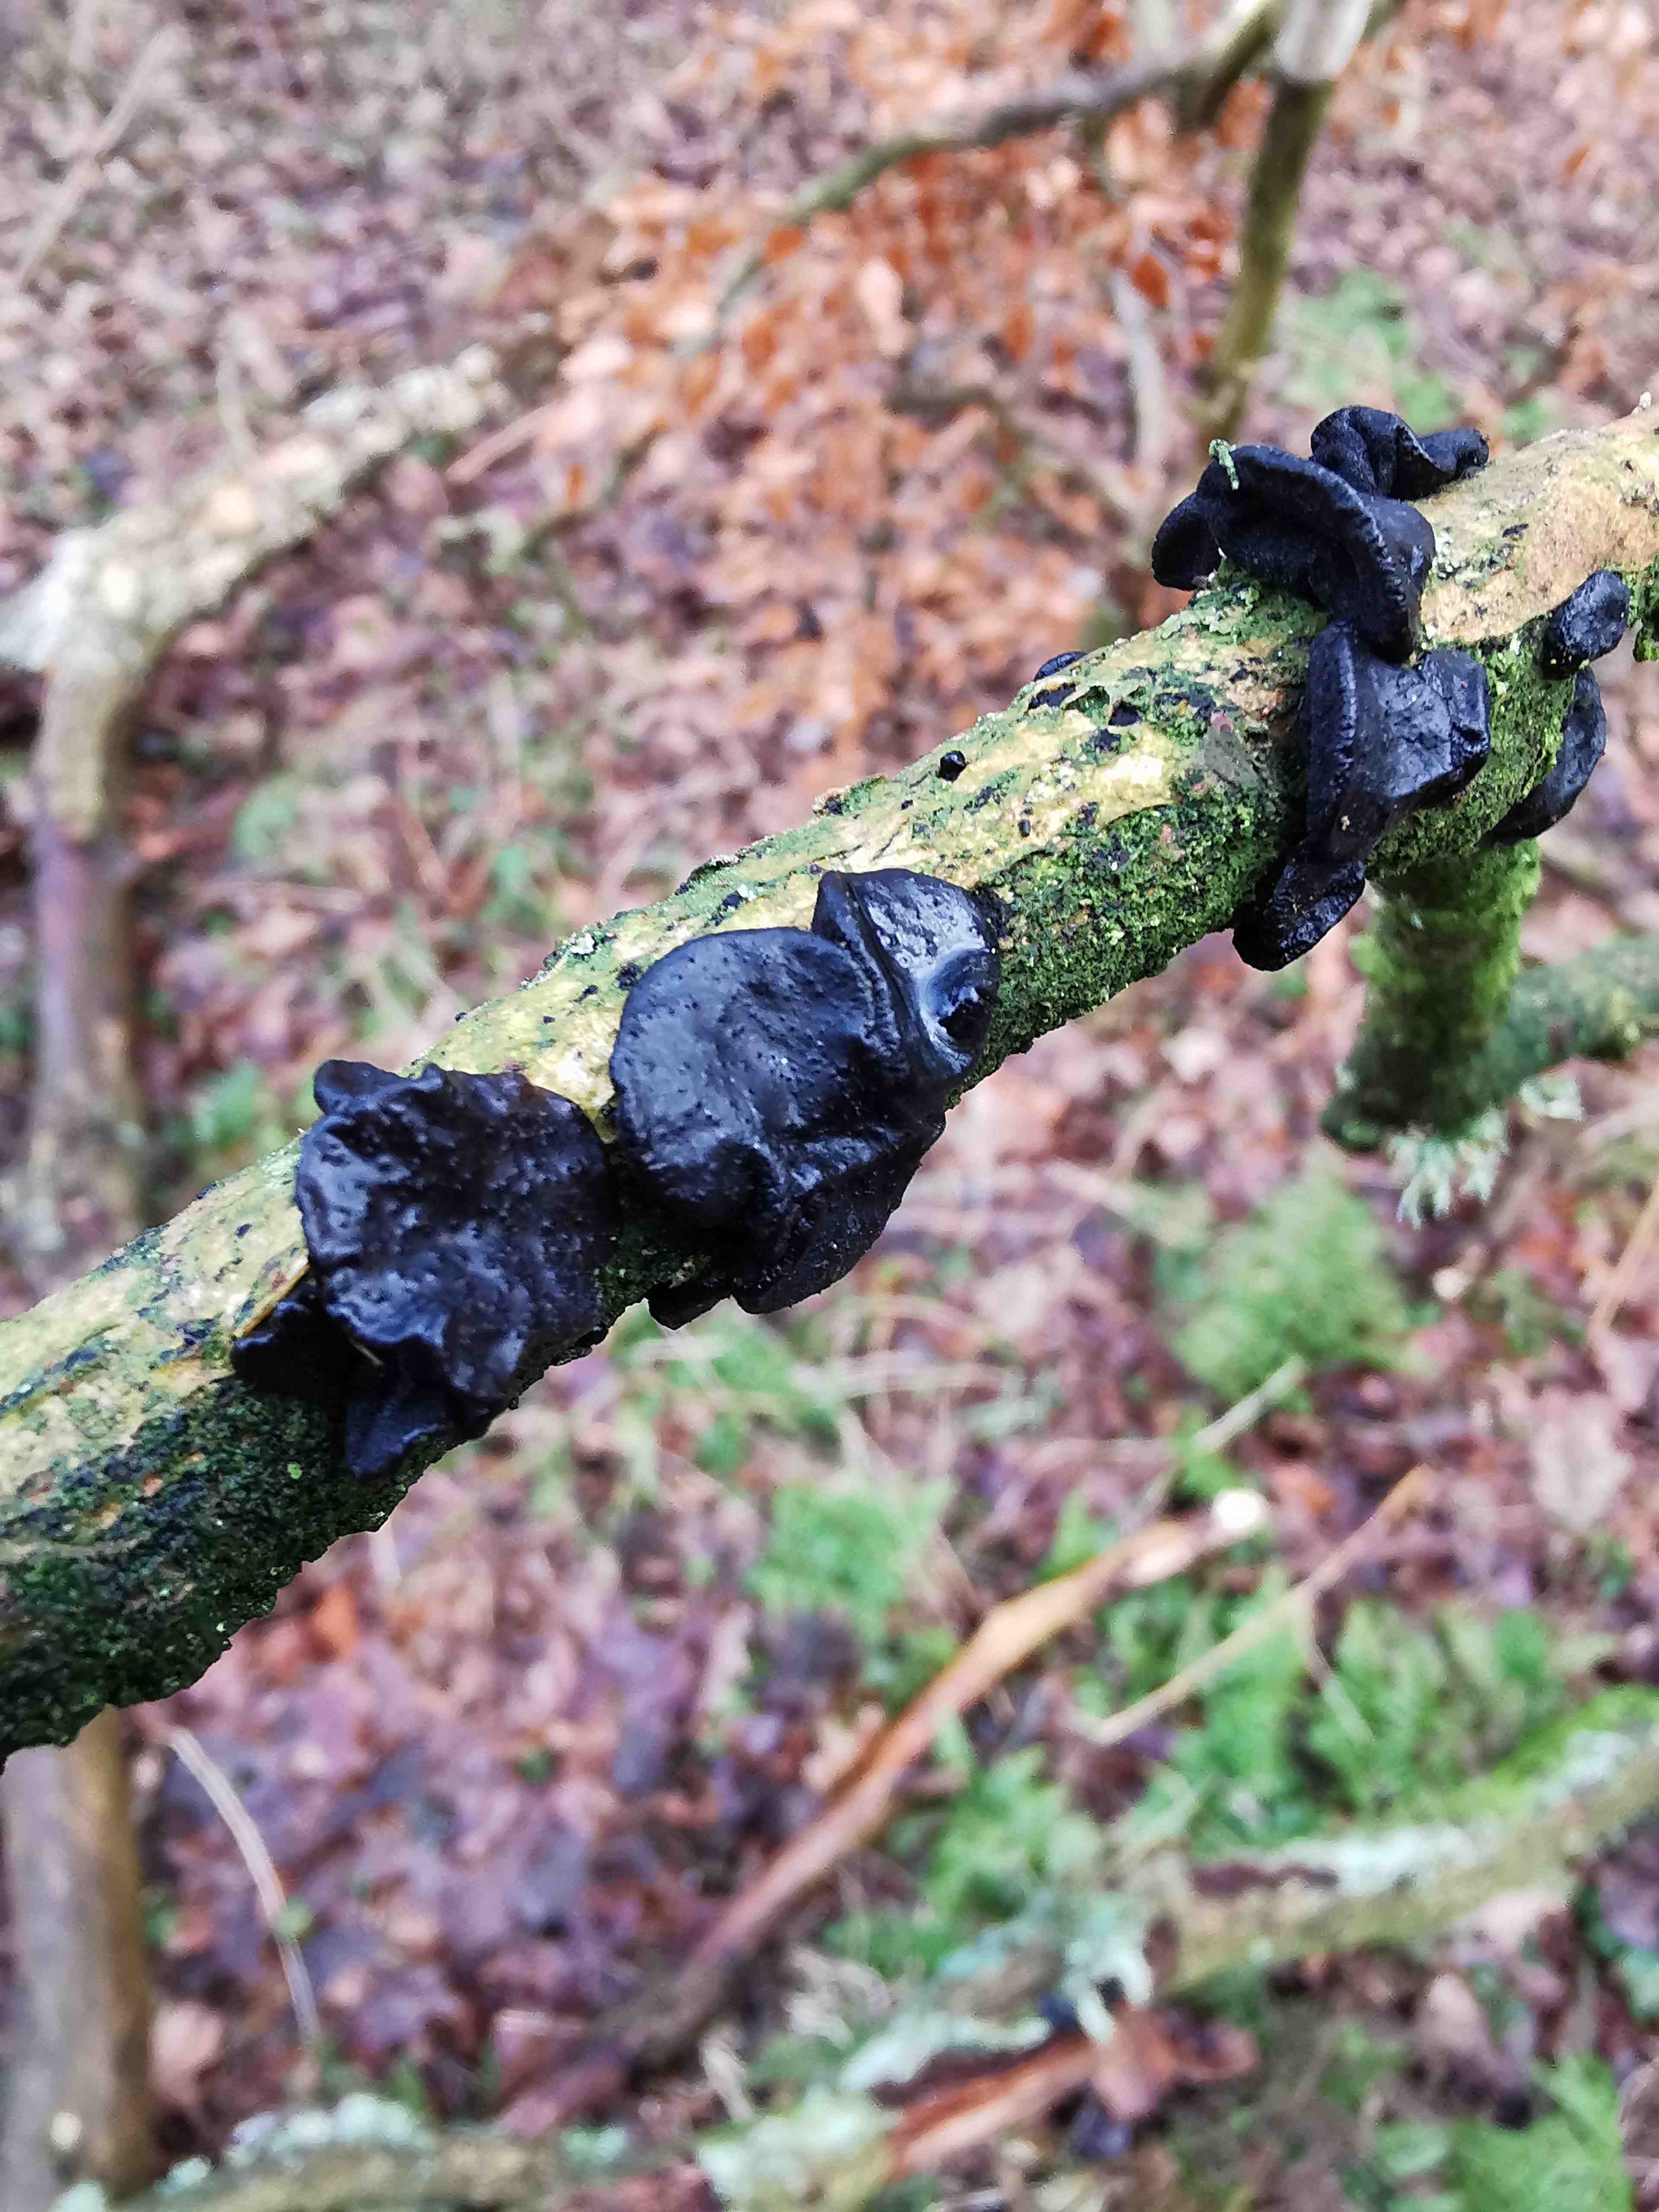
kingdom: Fungi
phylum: Basidiomycota
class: Agaricomycetes
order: Auriculariales
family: Auriculariaceae
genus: Exidia
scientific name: Exidia glandulosa
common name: ege-bævretop
